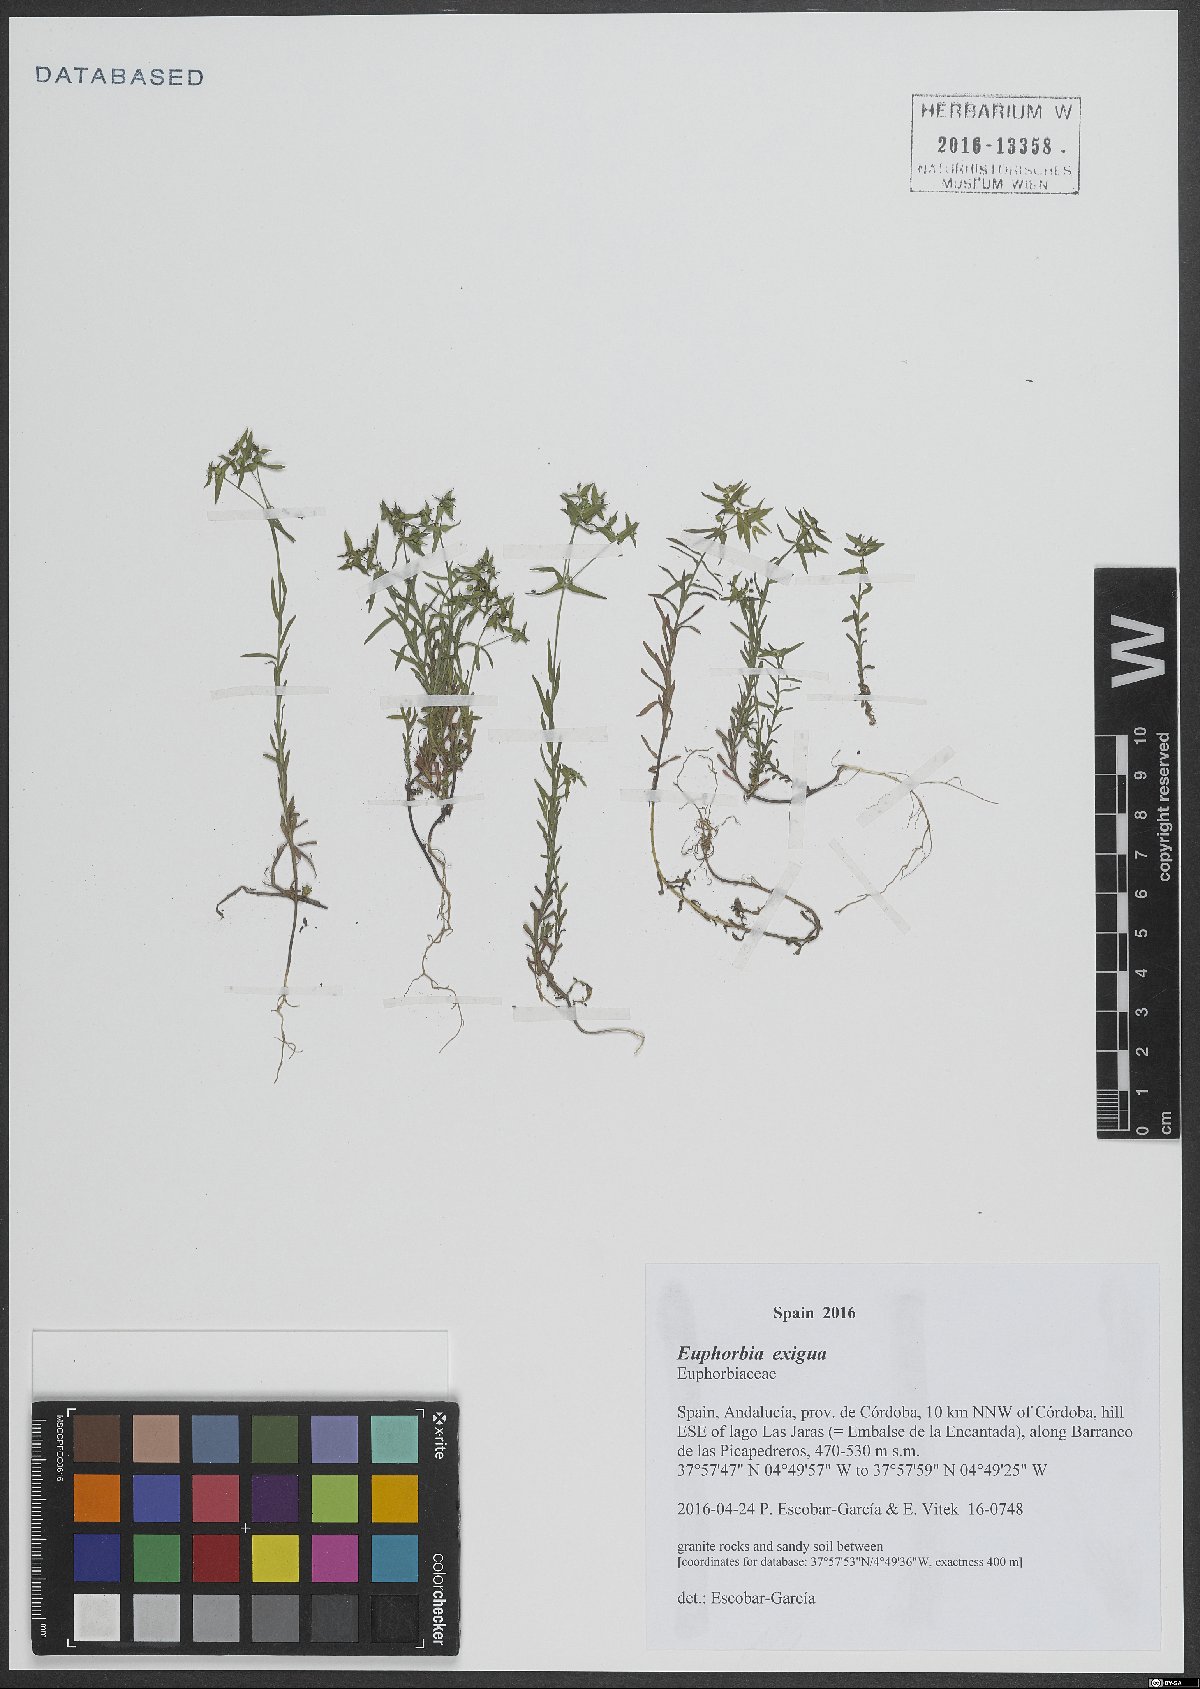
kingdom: Plantae
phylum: Tracheophyta
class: Magnoliopsida
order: Malpighiales
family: Euphorbiaceae
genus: Euphorbia
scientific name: Euphorbia exigua
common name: Dwarf spurge
